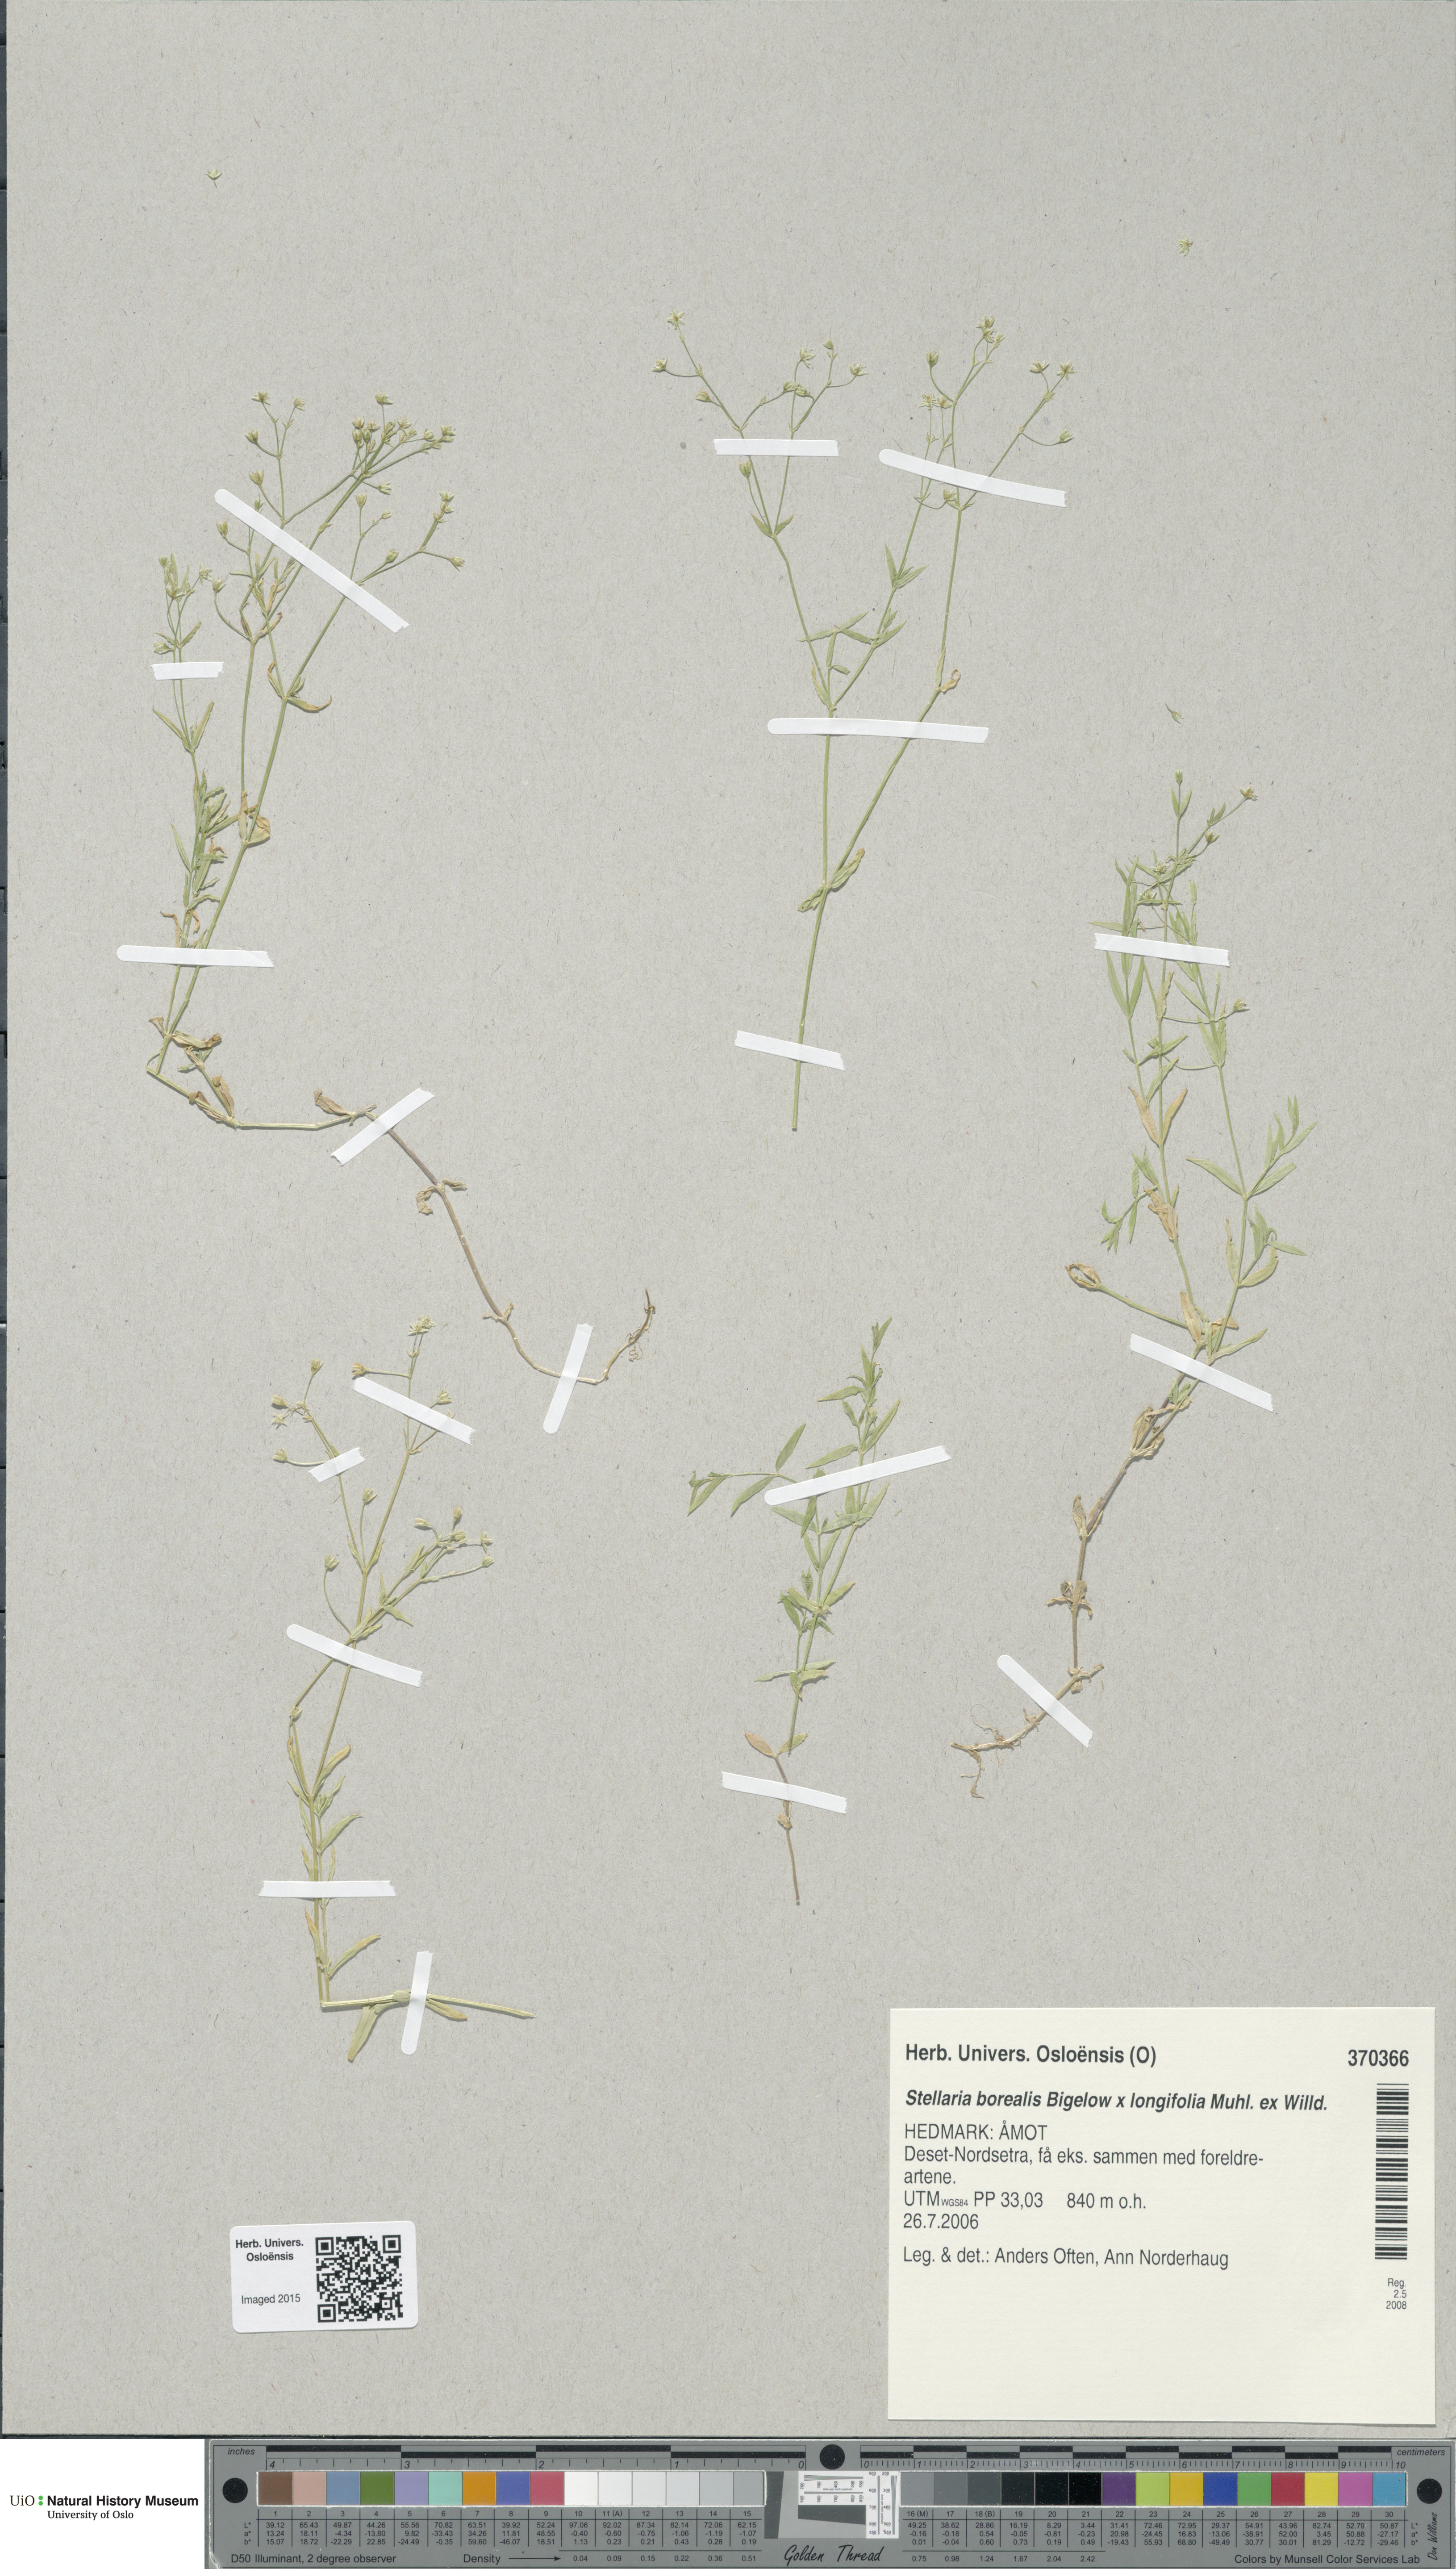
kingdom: Plantae
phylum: Tracheophyta
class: Magnoliopsida
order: Caryophyllales
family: Caryophyllaceae
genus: Stellaria
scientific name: Stellaria
